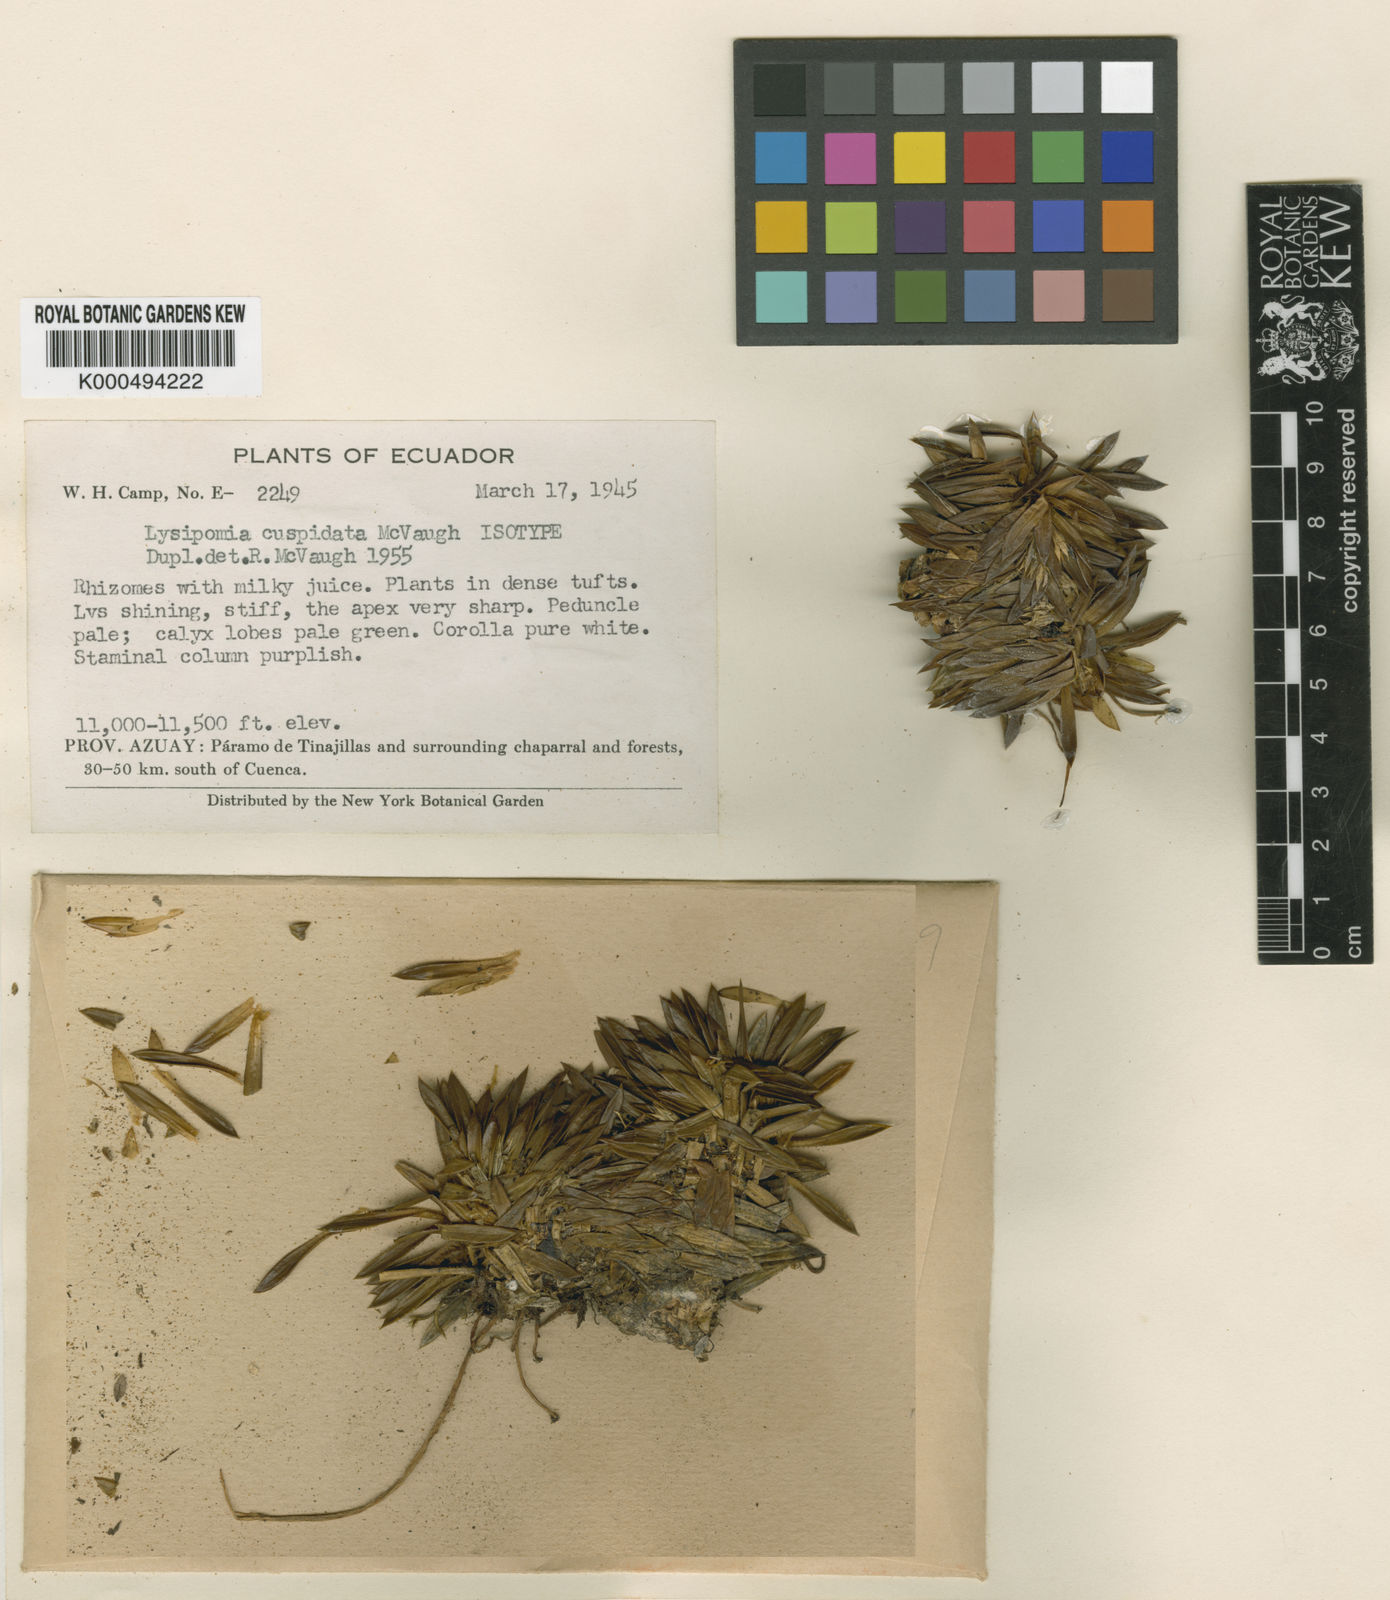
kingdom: Plantae
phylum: Tracheophyta
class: Magnoliopsida
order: Asterales
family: Campanulaceae
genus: Lysipomia
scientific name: Lysipomia cuspidata
